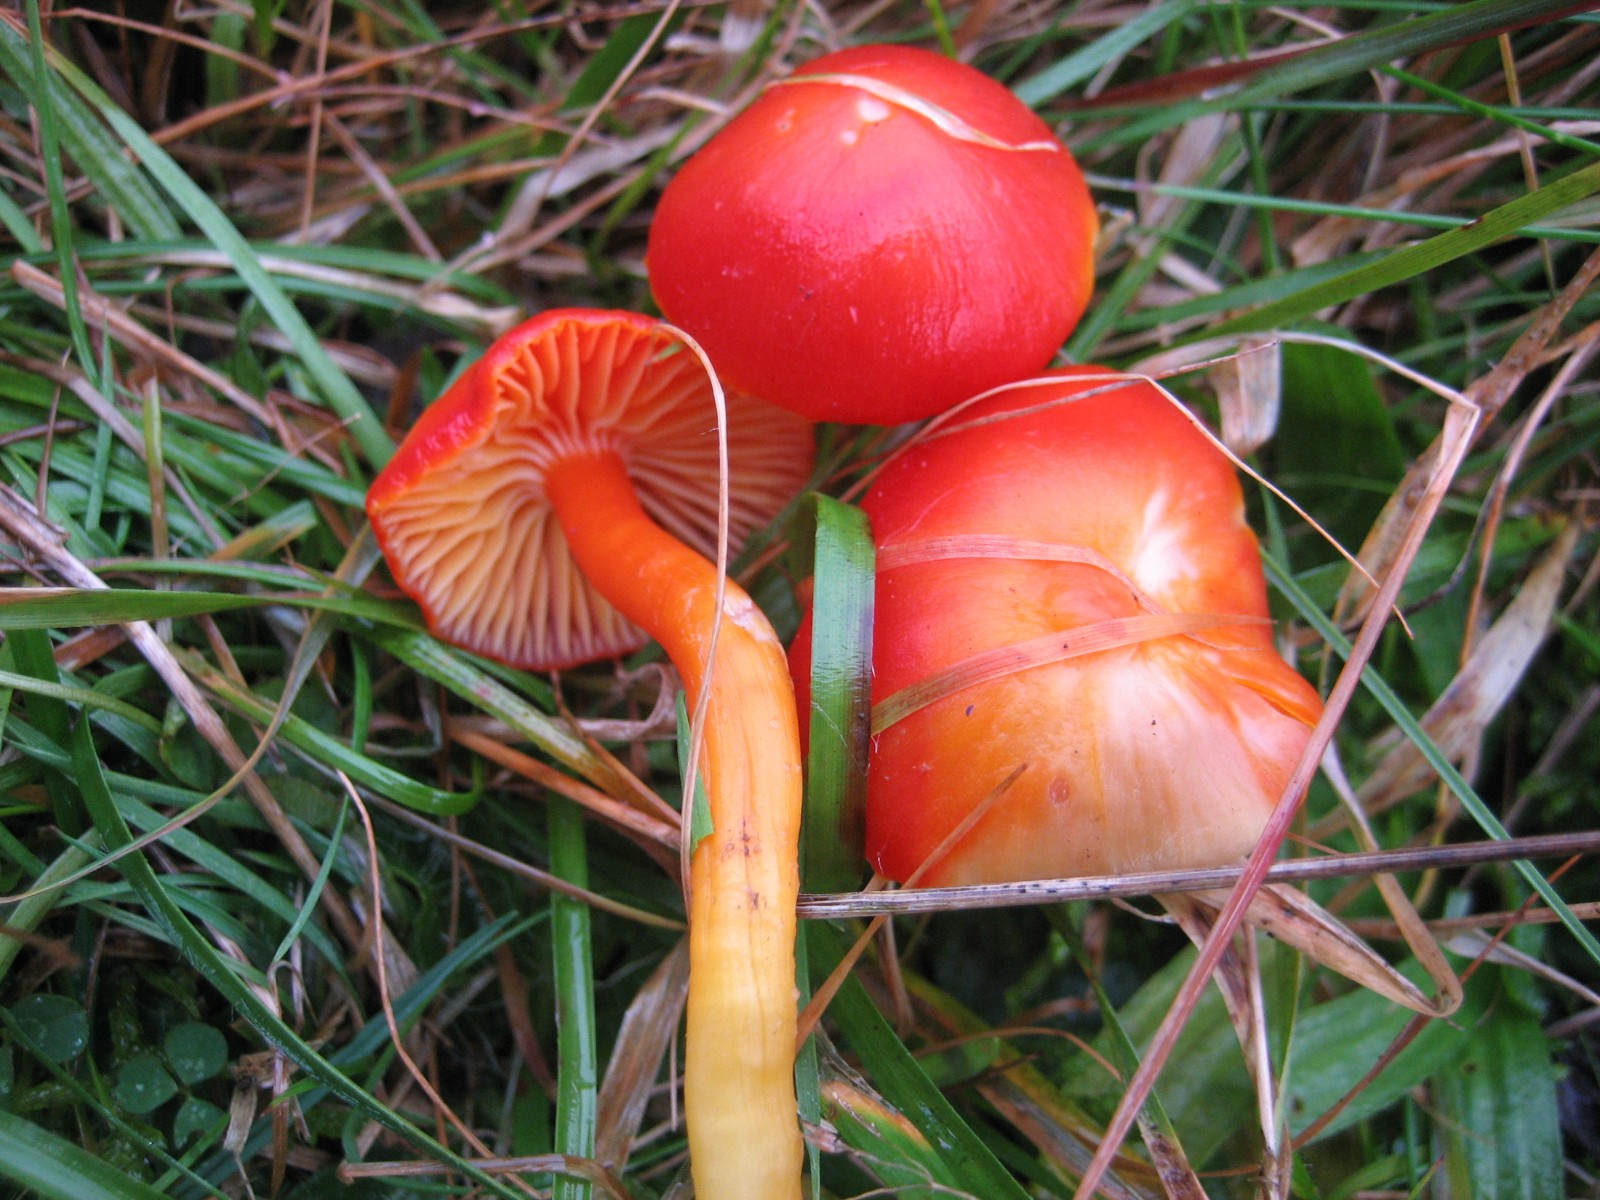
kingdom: Fungi
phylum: Basidiomycota
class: Agaricomycetes
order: Agaricales
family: Hygrophoraceae
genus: Hygrocybe
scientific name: Hygrocybe coccinea
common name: cinnober-vokshat
